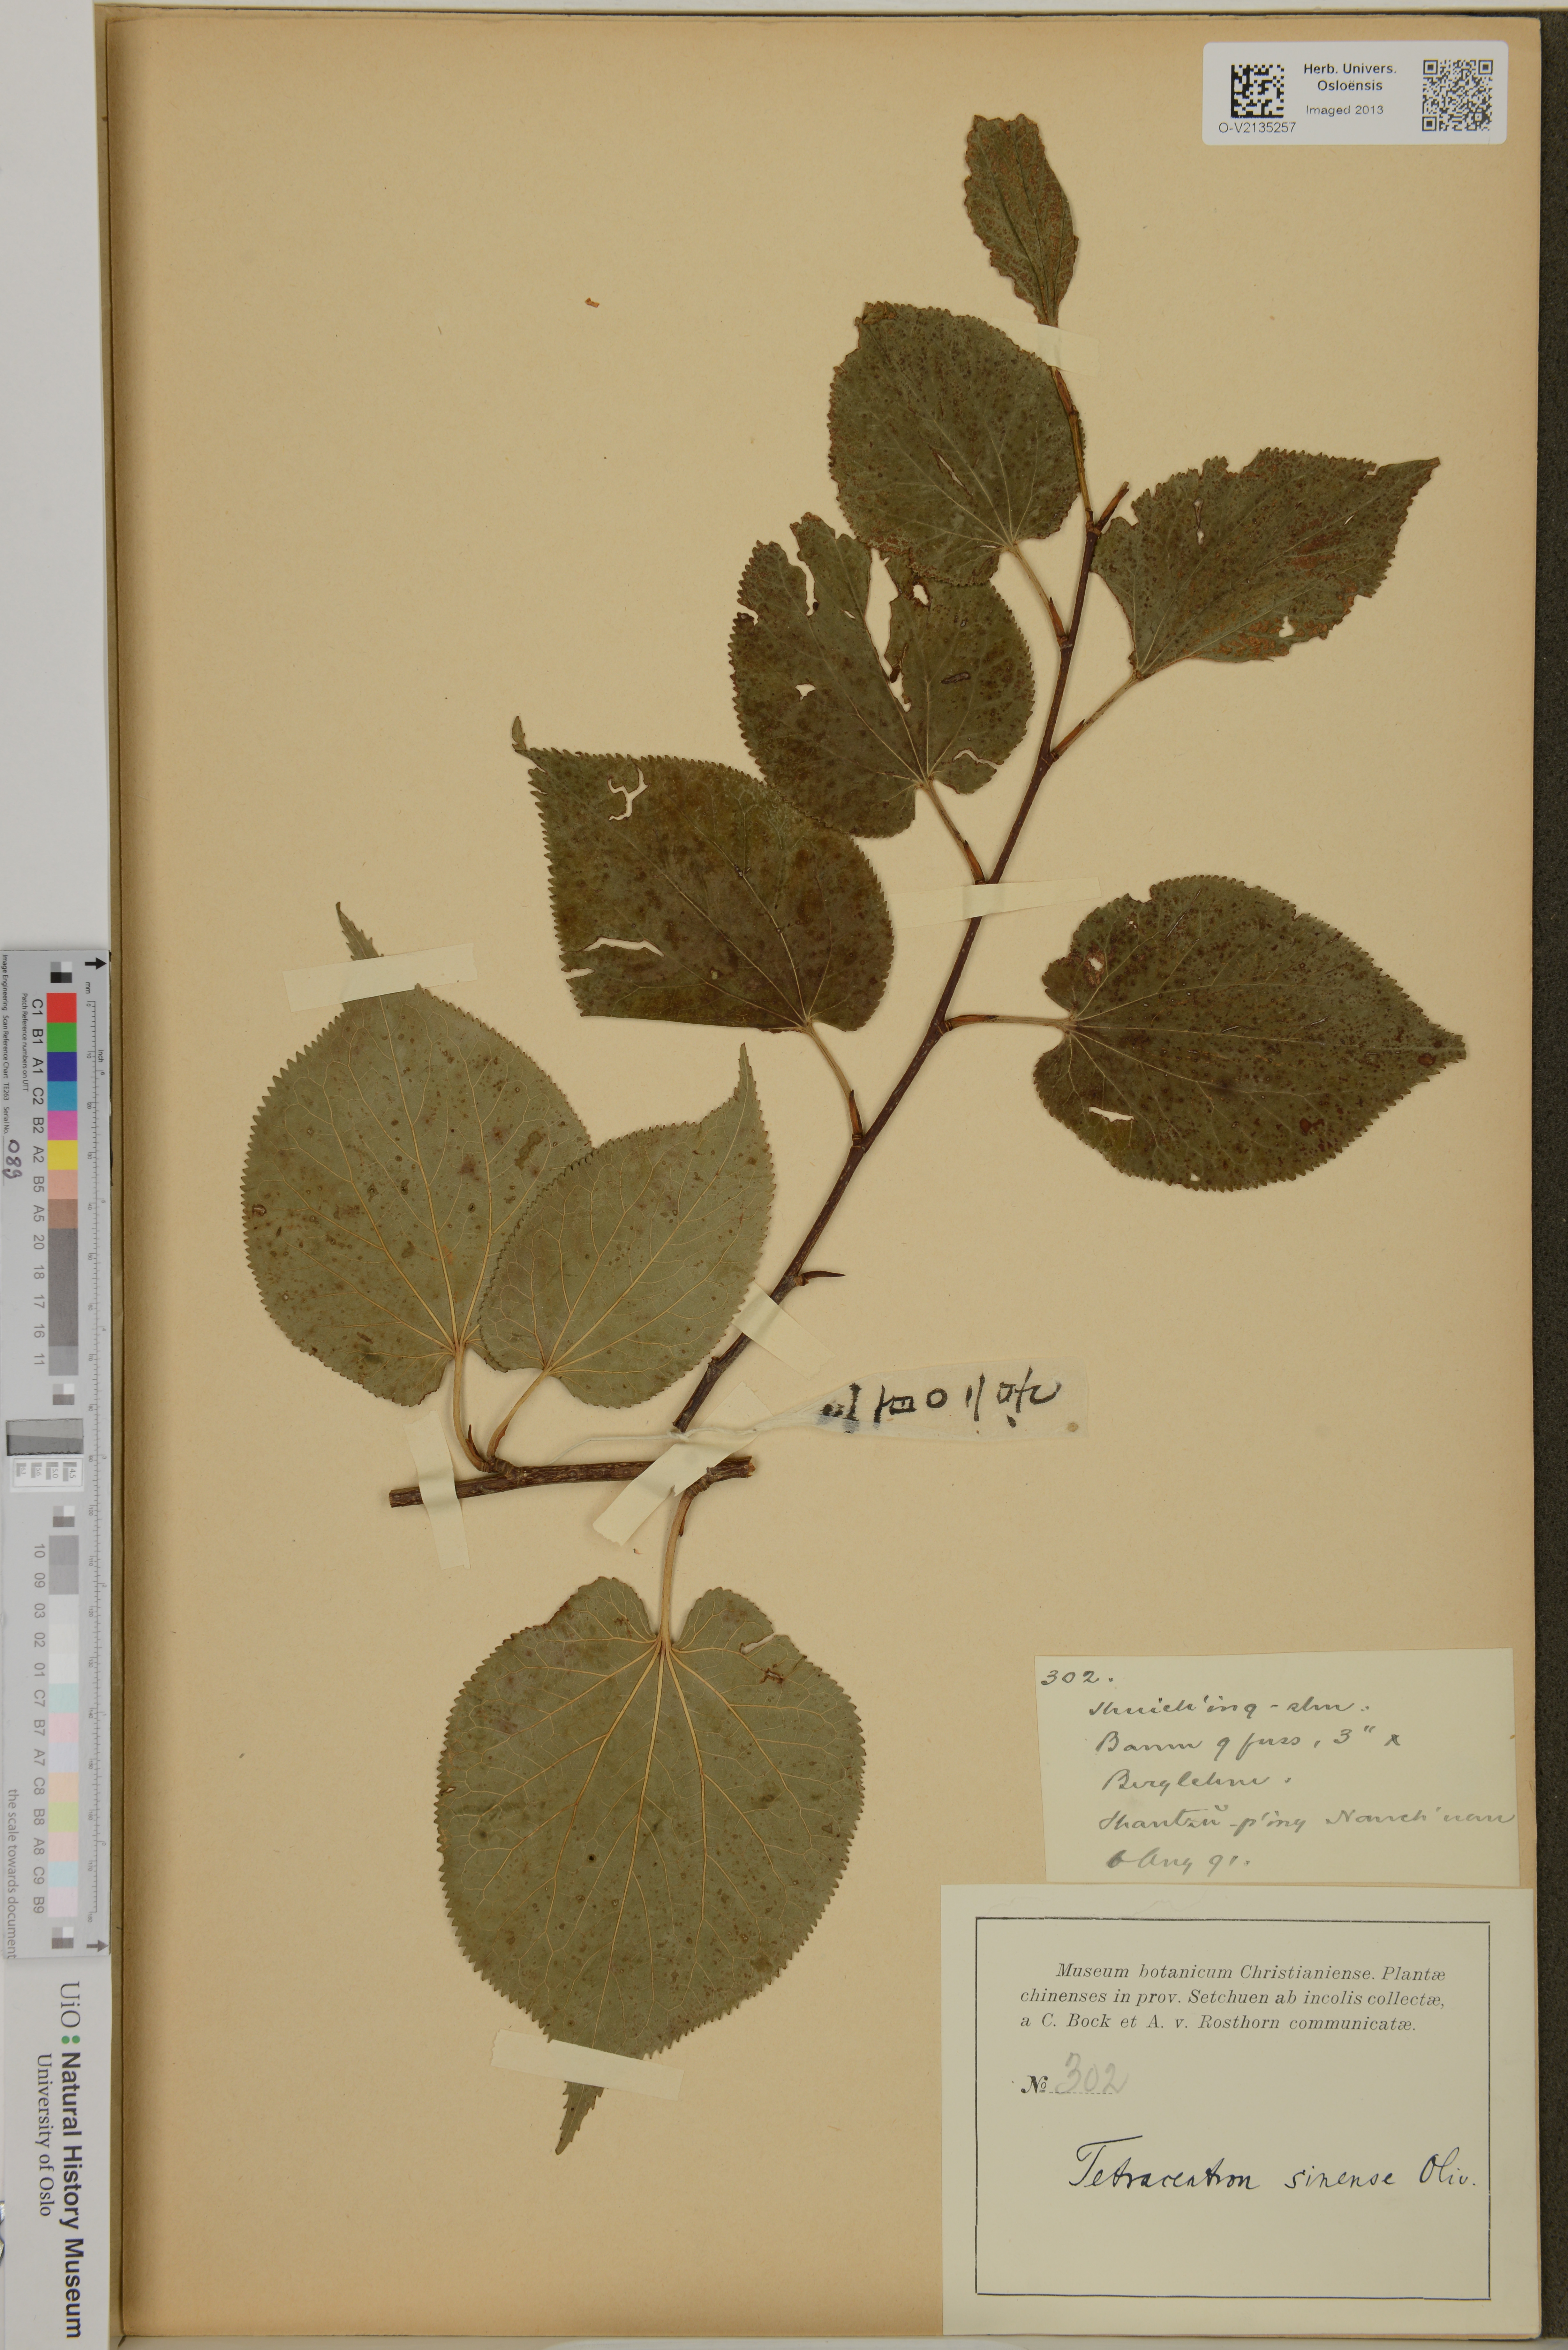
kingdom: Plantae
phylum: Tracheophyta
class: Magnoliopsida
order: Trochodendrales
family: Trochodendraceae
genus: Tetracentron
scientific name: Tetracentron sinense
